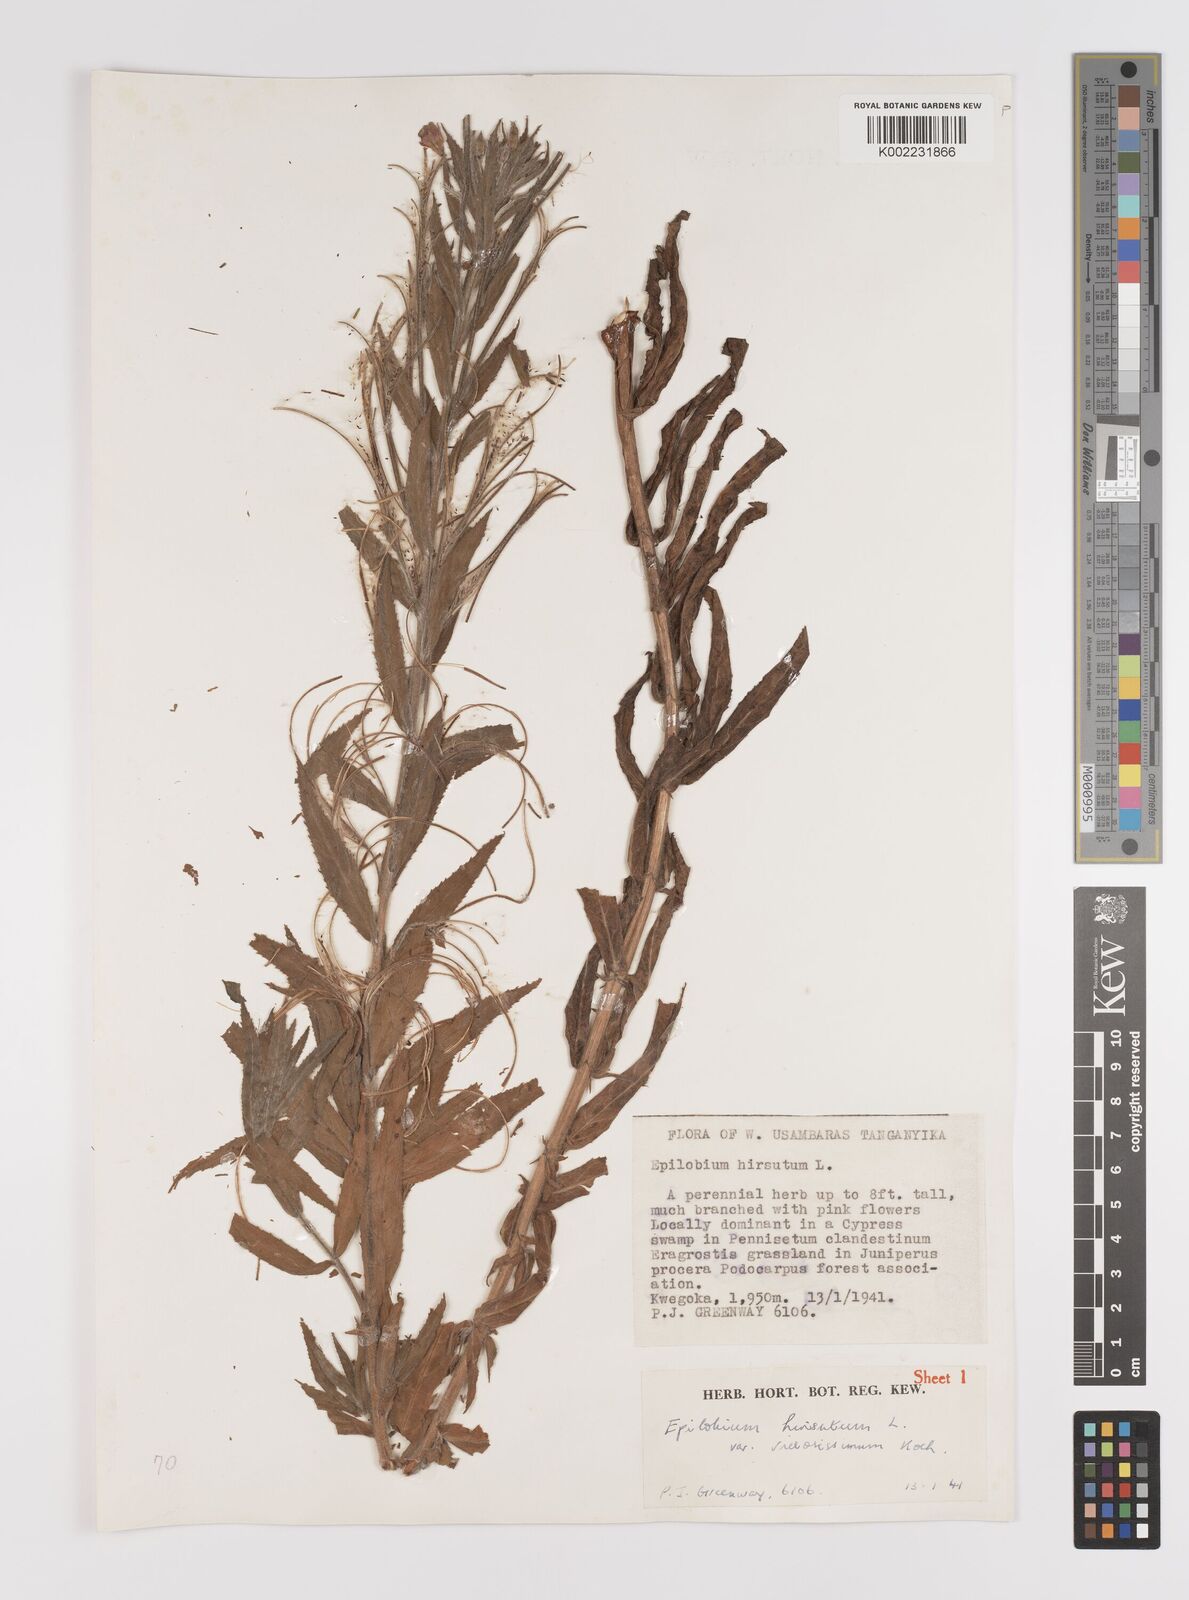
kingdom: Plantae
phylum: Tracheophyta
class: Magnoliopsida
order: Myrtales
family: Onagraceae
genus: Epilobium
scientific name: Epilobium hirsutum
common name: Great willowherb
